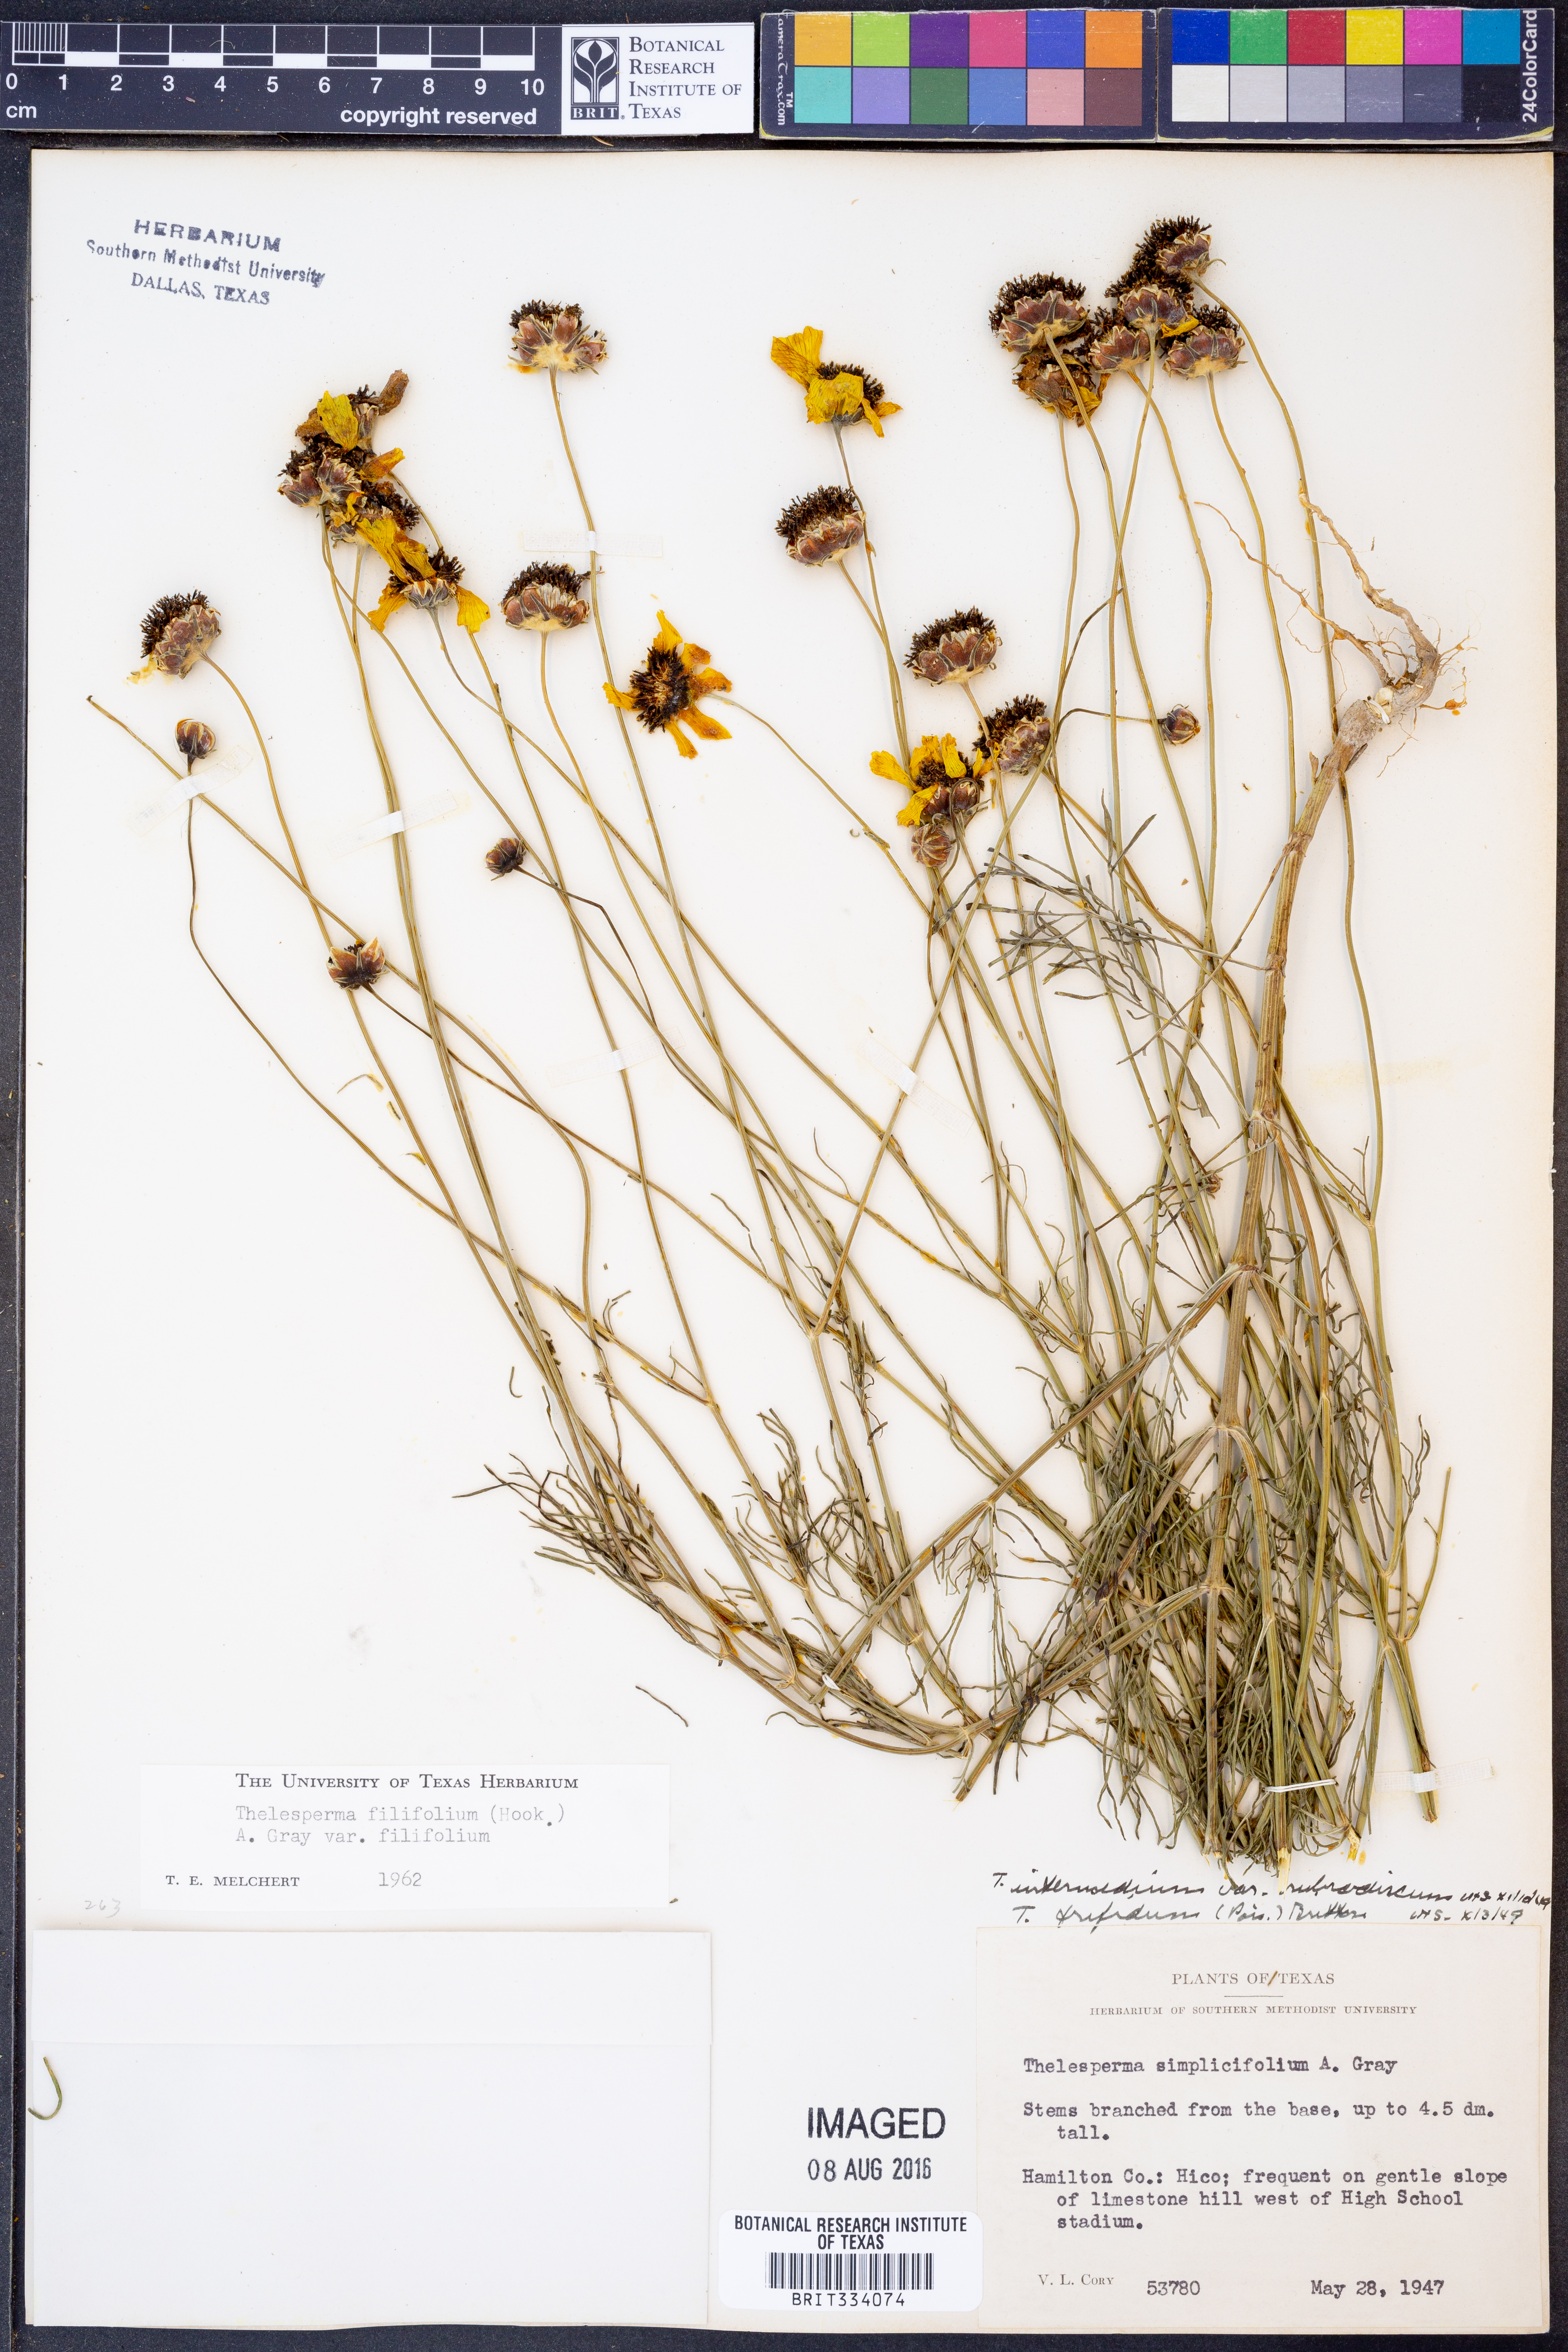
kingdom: Plantae
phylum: Tracheophyta
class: Magnoliopsida
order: Asterales
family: Asteraceae
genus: Thelesperma
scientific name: Thelesperma filifolium
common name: Stiff greenthread
